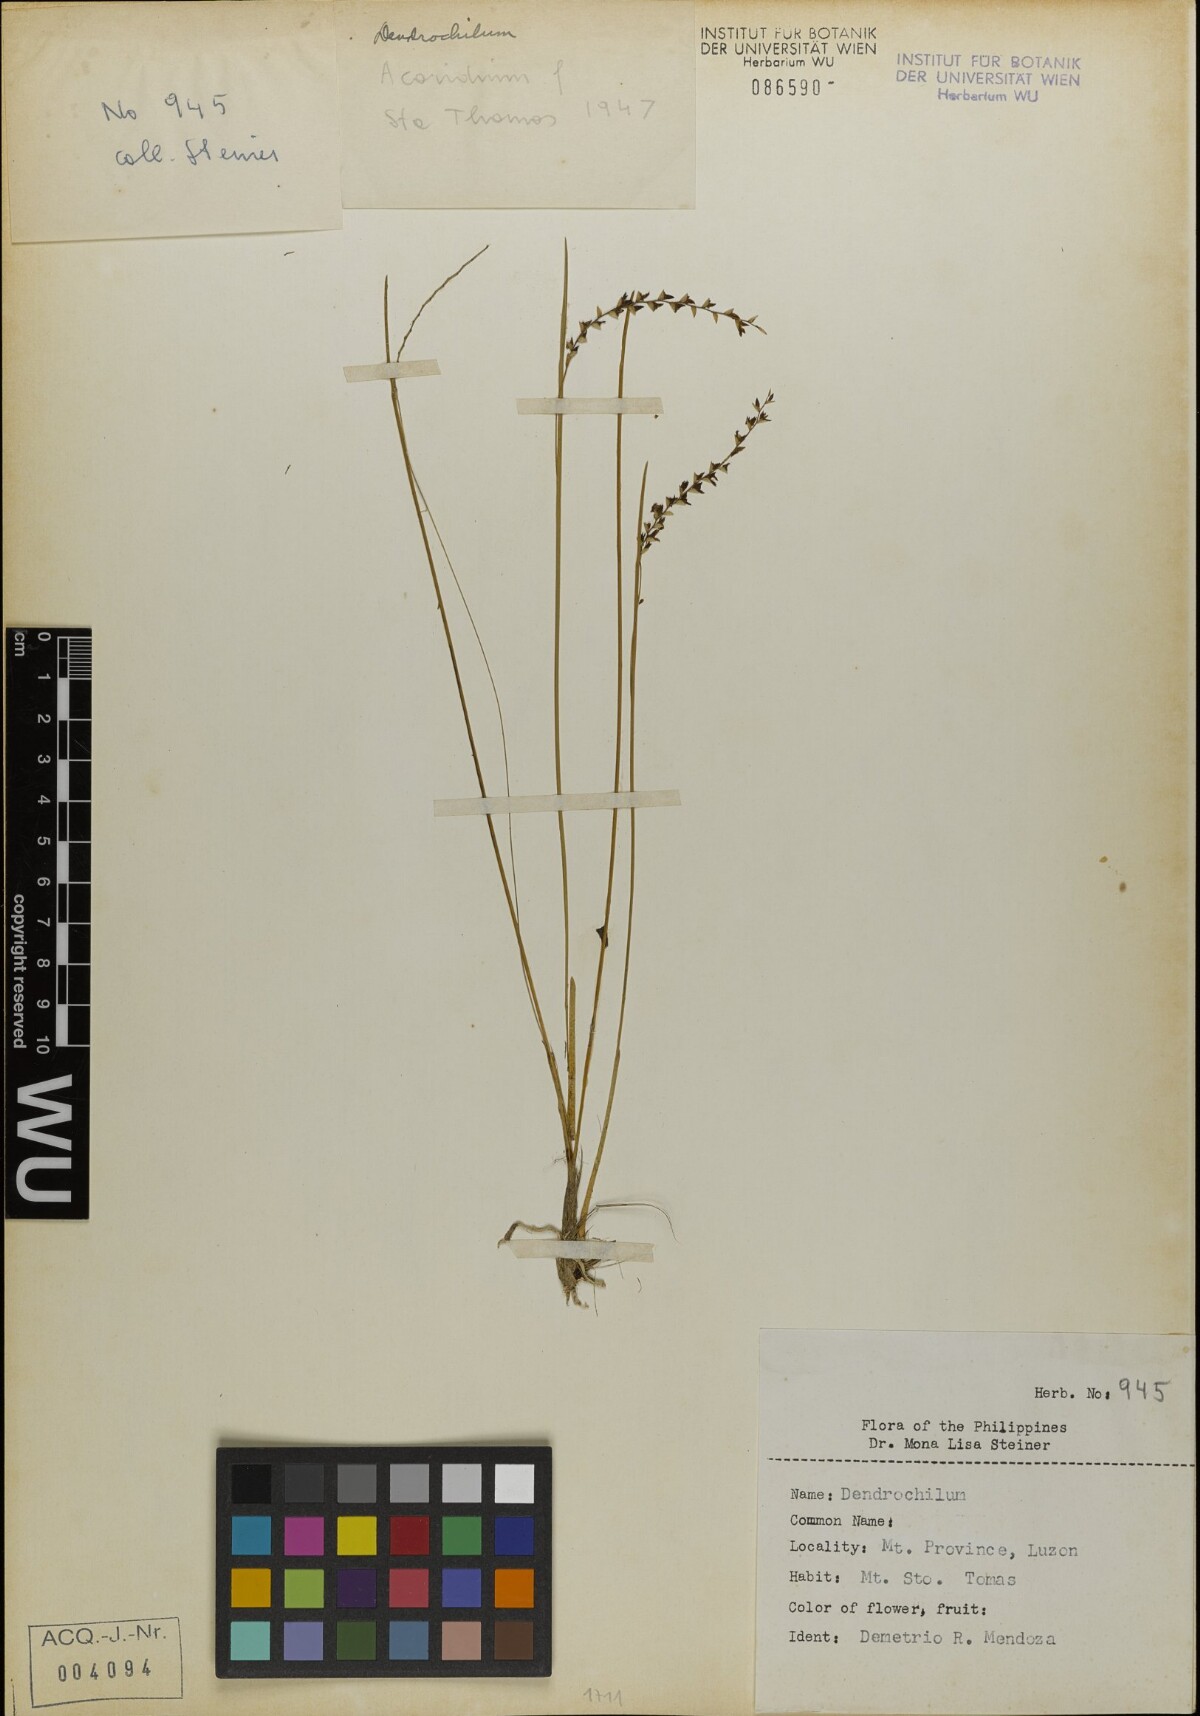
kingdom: Plantae
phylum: Tracheophyta
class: Liliopsida
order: Asparagales
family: Orchidaceae
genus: Coelogyne
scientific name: Coelogyne
